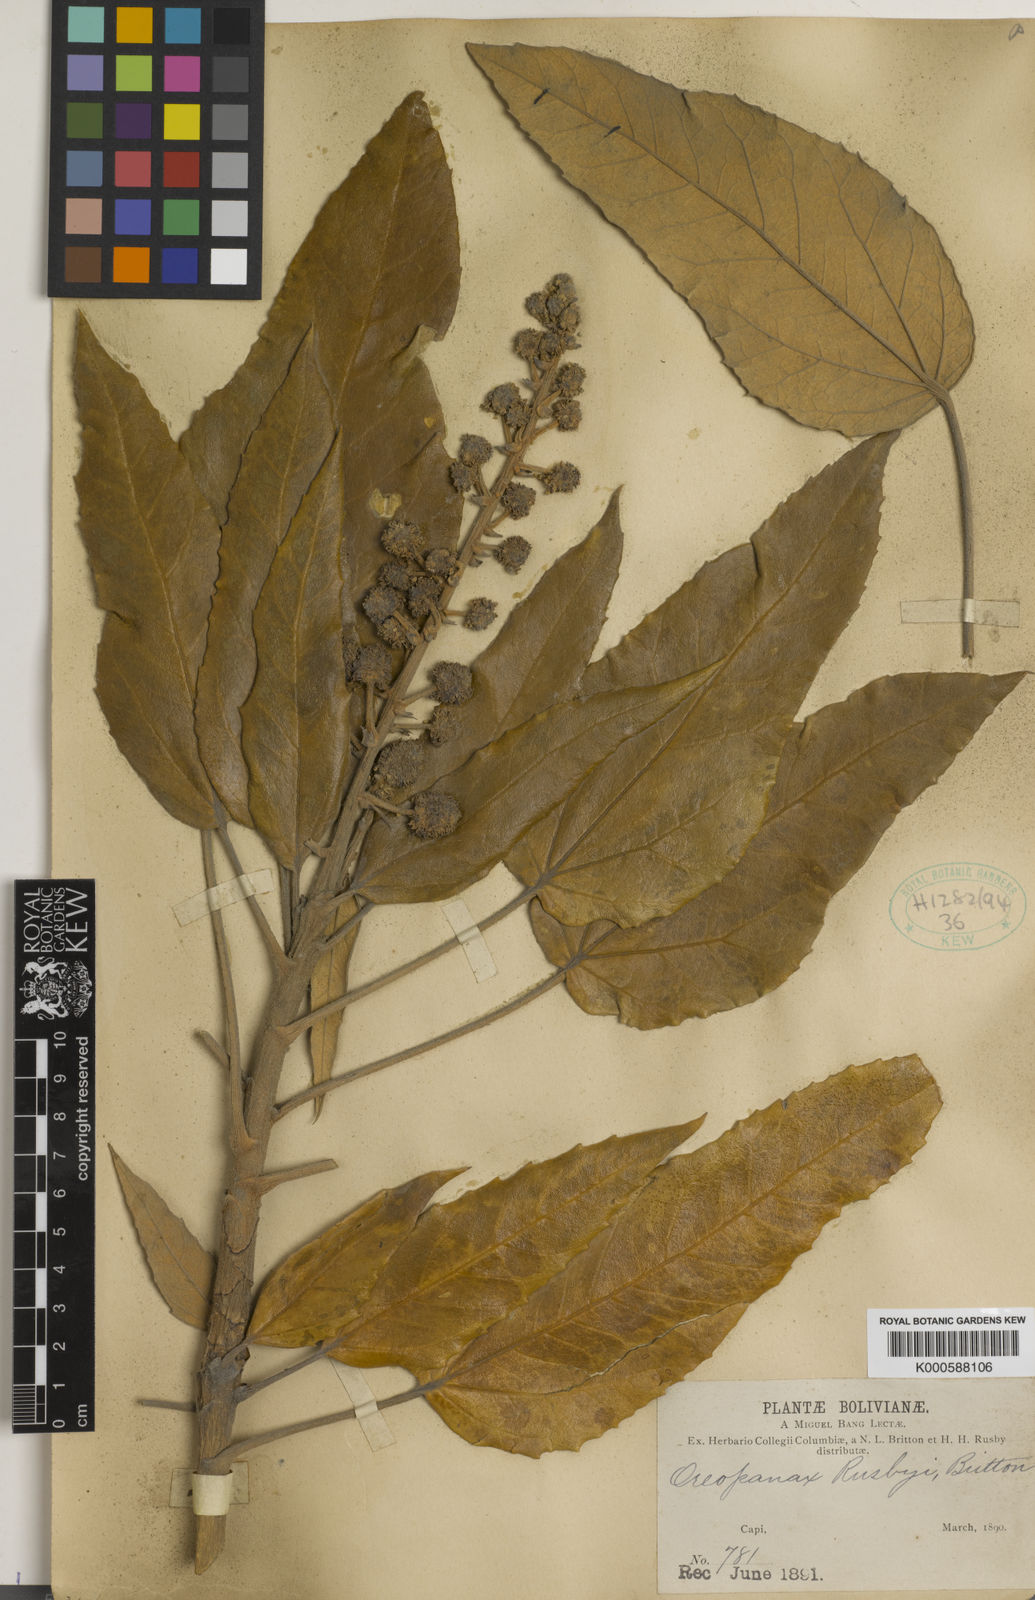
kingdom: Plantae
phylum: Tracheophyta
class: Magnoliopsida
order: Apiales
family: Araliaceae
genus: Oreopanax
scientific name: Oreopanax rusbyi
